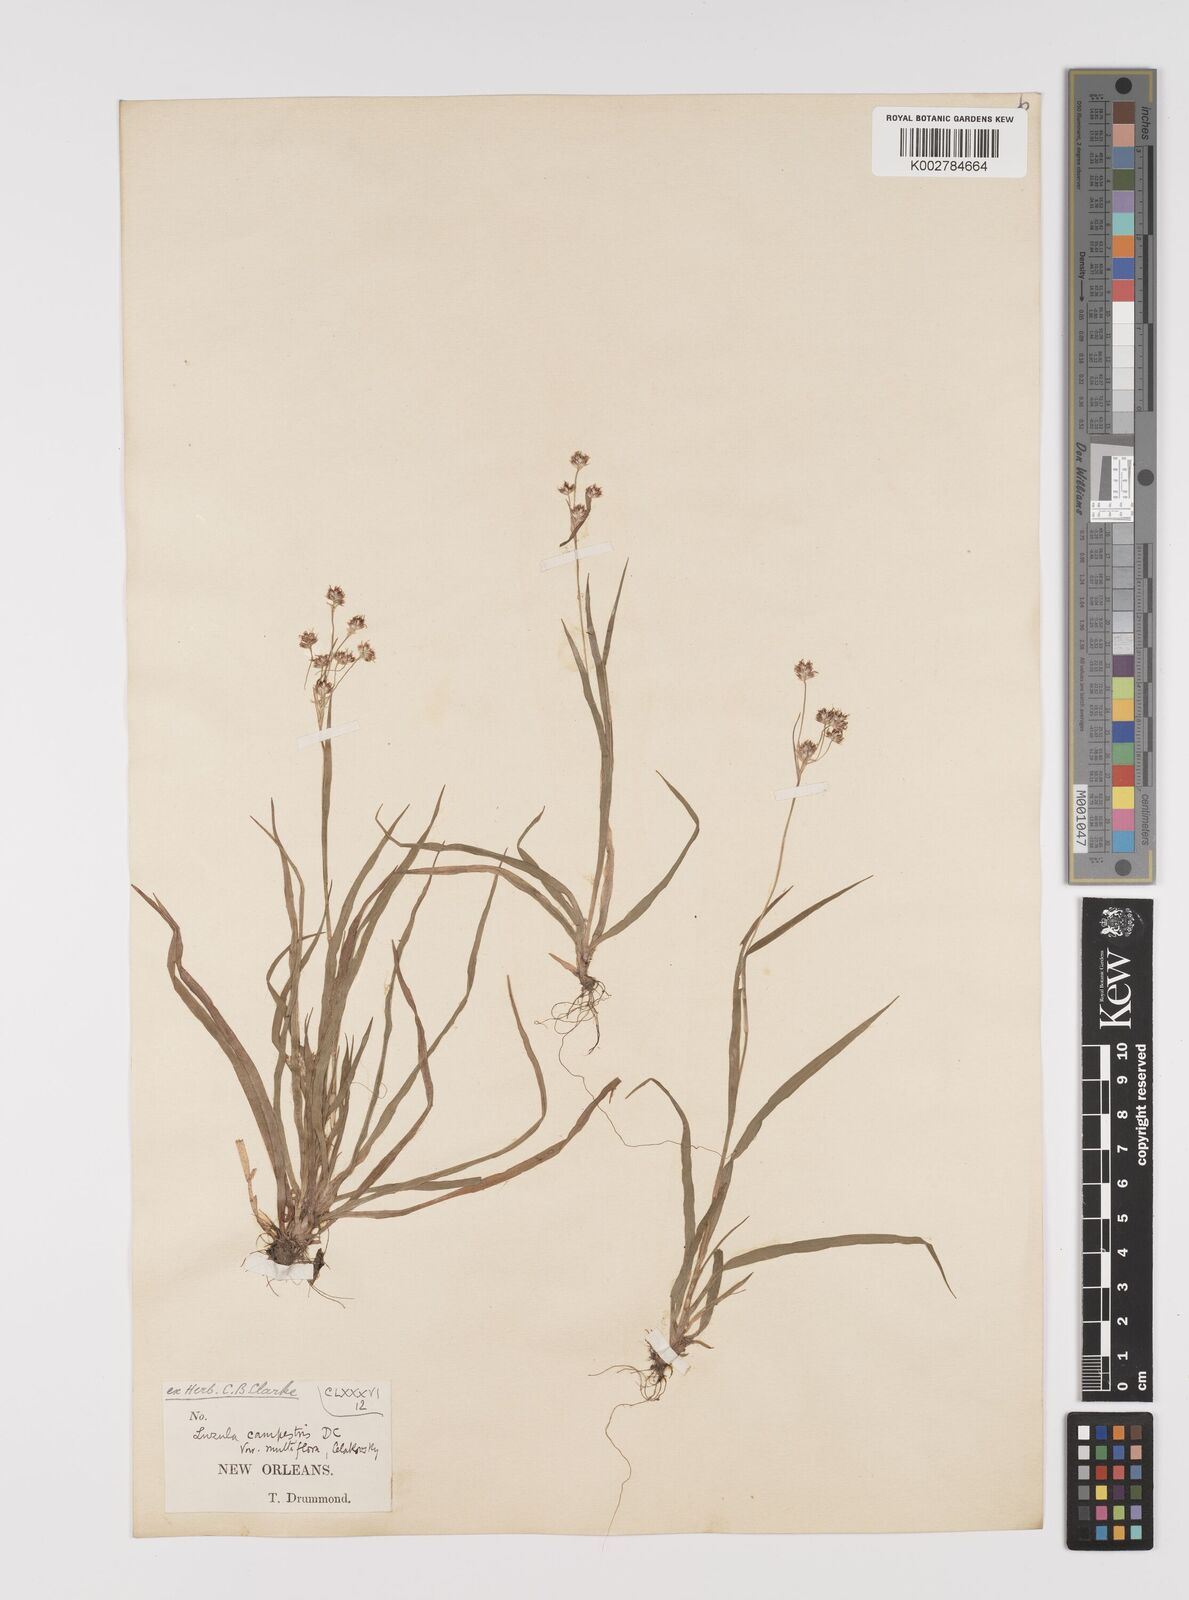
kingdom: Plantae
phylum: Tracheophyta
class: Liliopsida
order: Poales
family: Juncaceae
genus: Luzula
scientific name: Luzula campestris
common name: Field wood-rush
